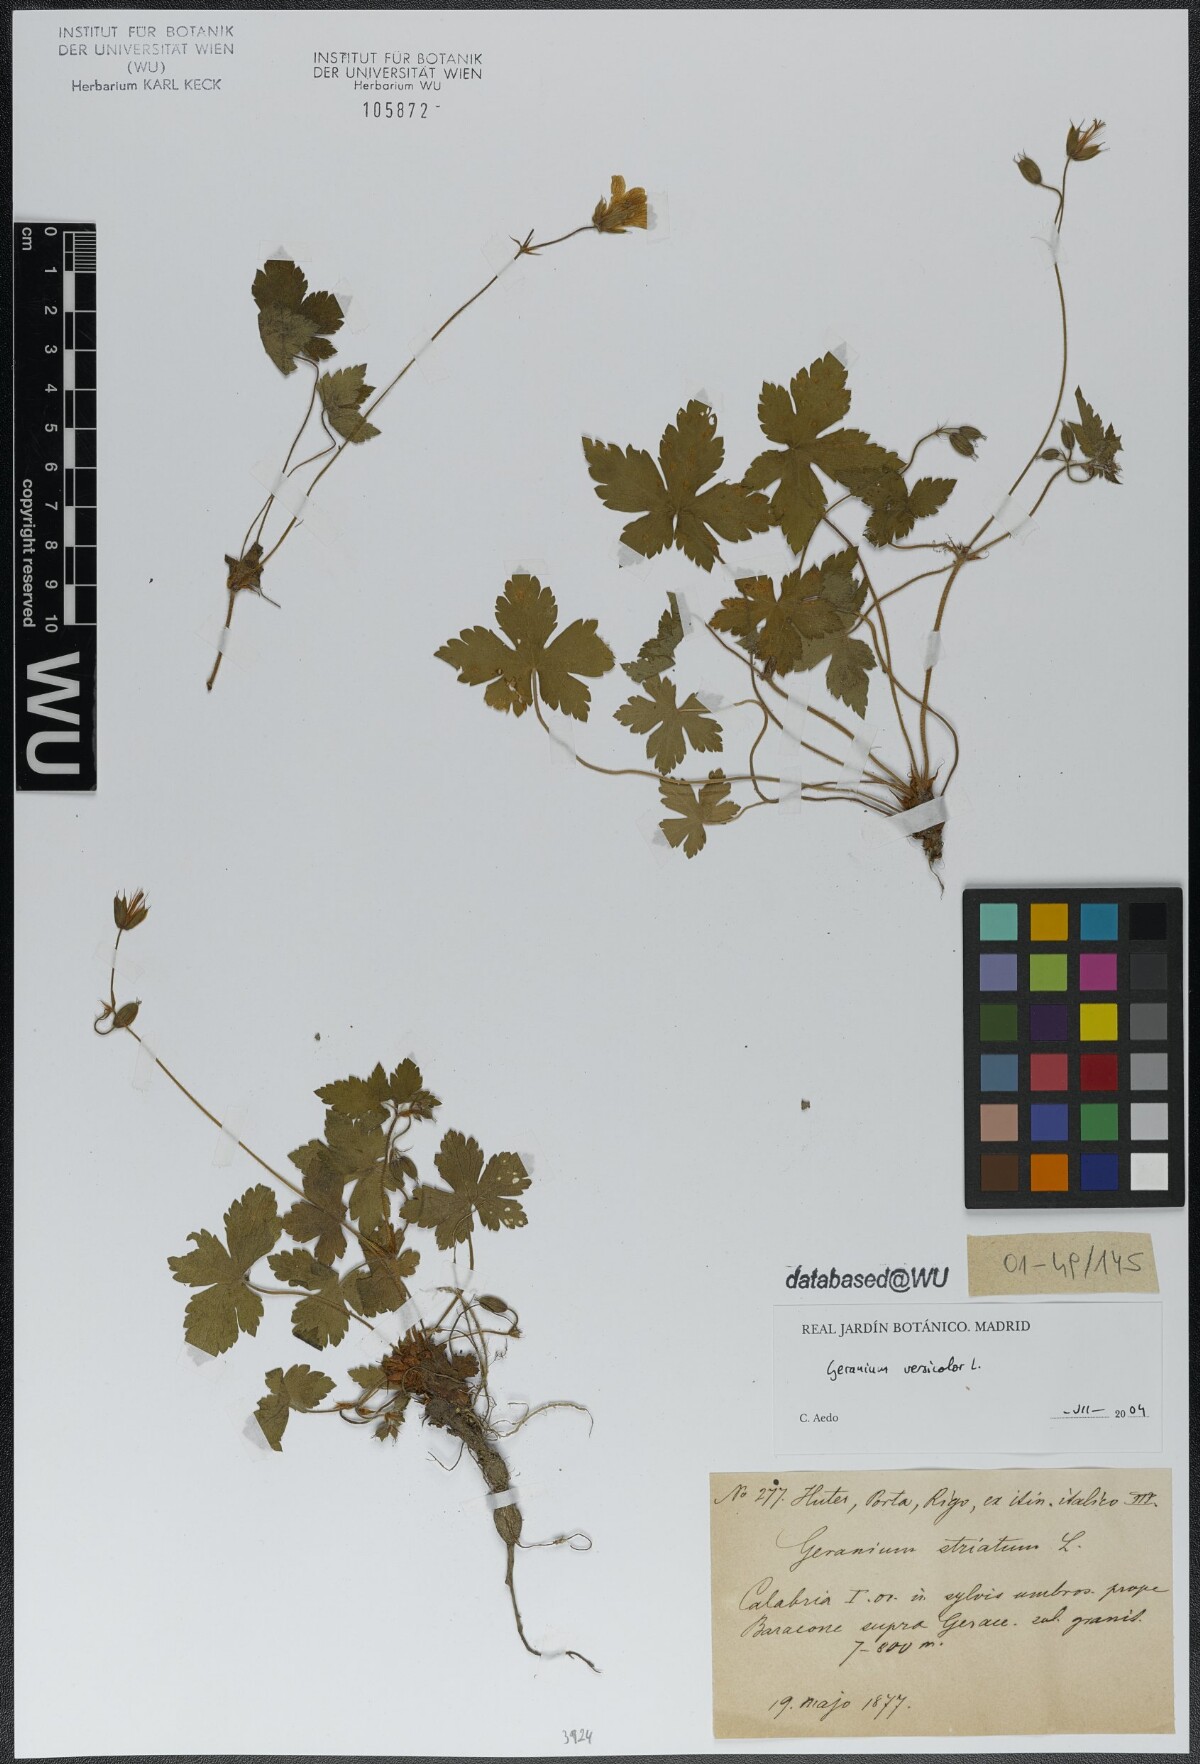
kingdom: Plantae
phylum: Tracheophyta
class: Magnoliopsida
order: Geraniales
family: Geraniaceae
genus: Geranium
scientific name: Geranium versicolor
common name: Pencilled crane's-bill
